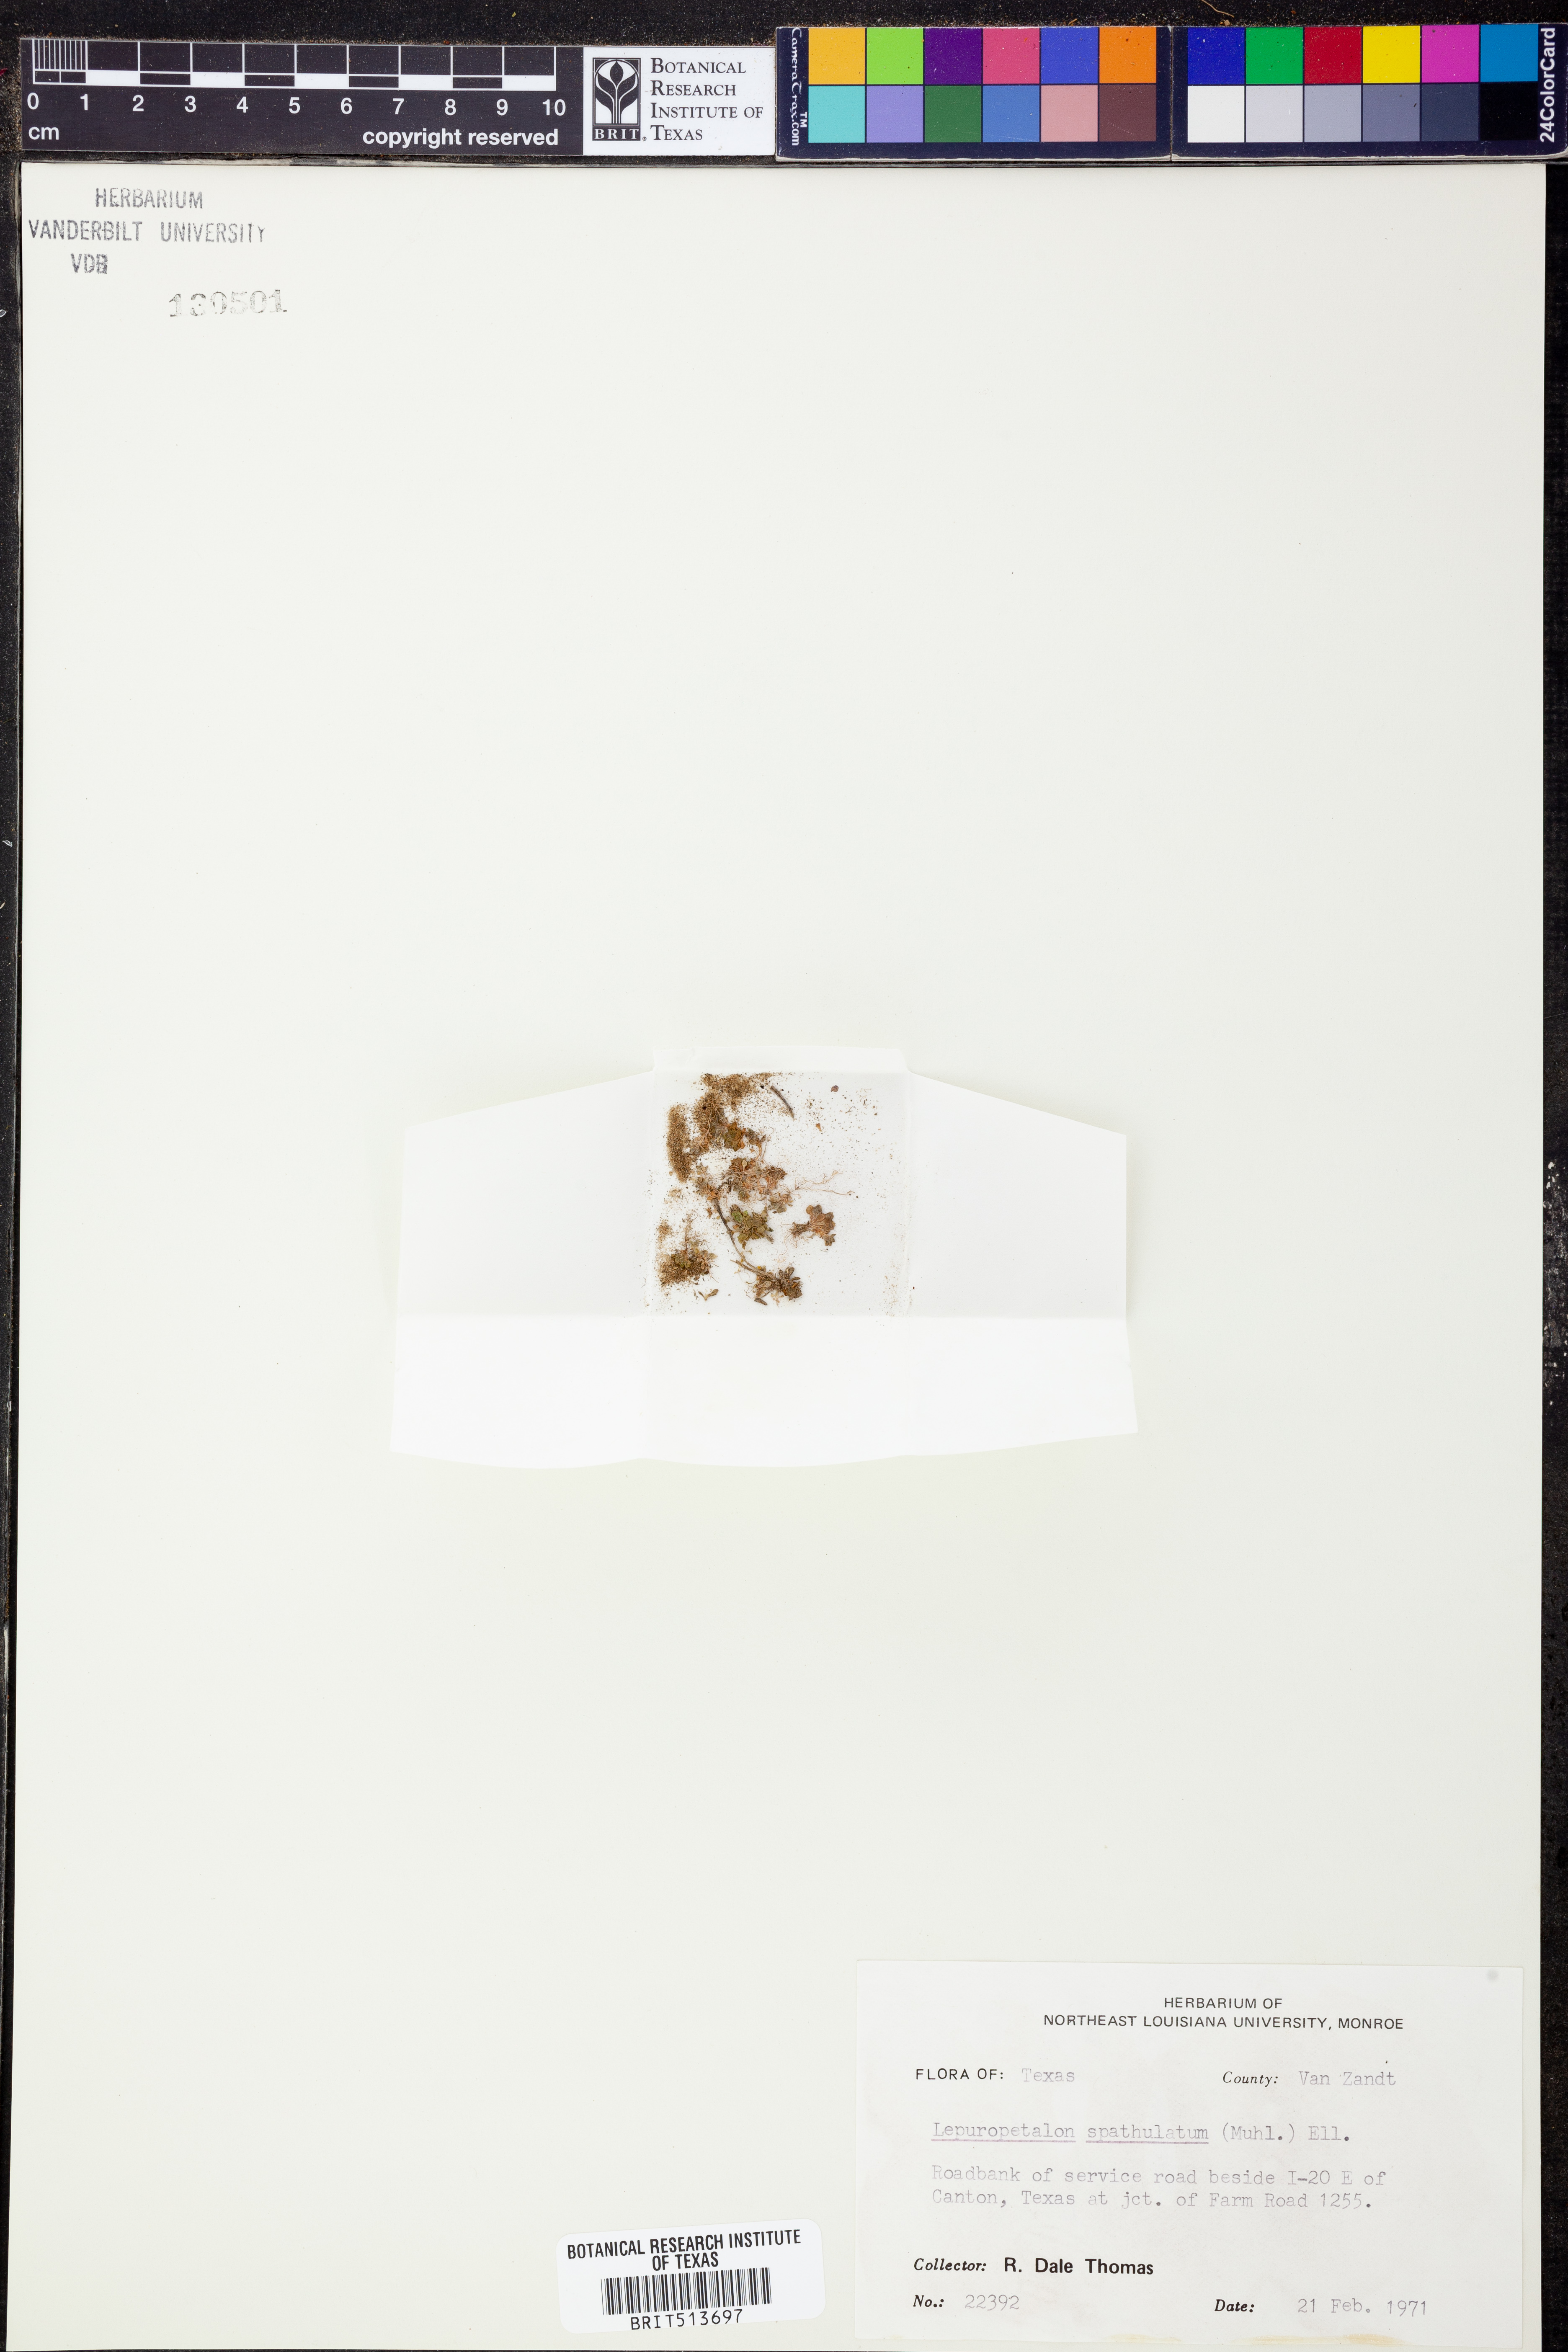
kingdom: Plantae
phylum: Tracheophyta
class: Magnoliopsida
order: Celastrales
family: Parnassiaceae
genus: Lepuropetalon
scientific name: Lepuropetalon spathulatum
